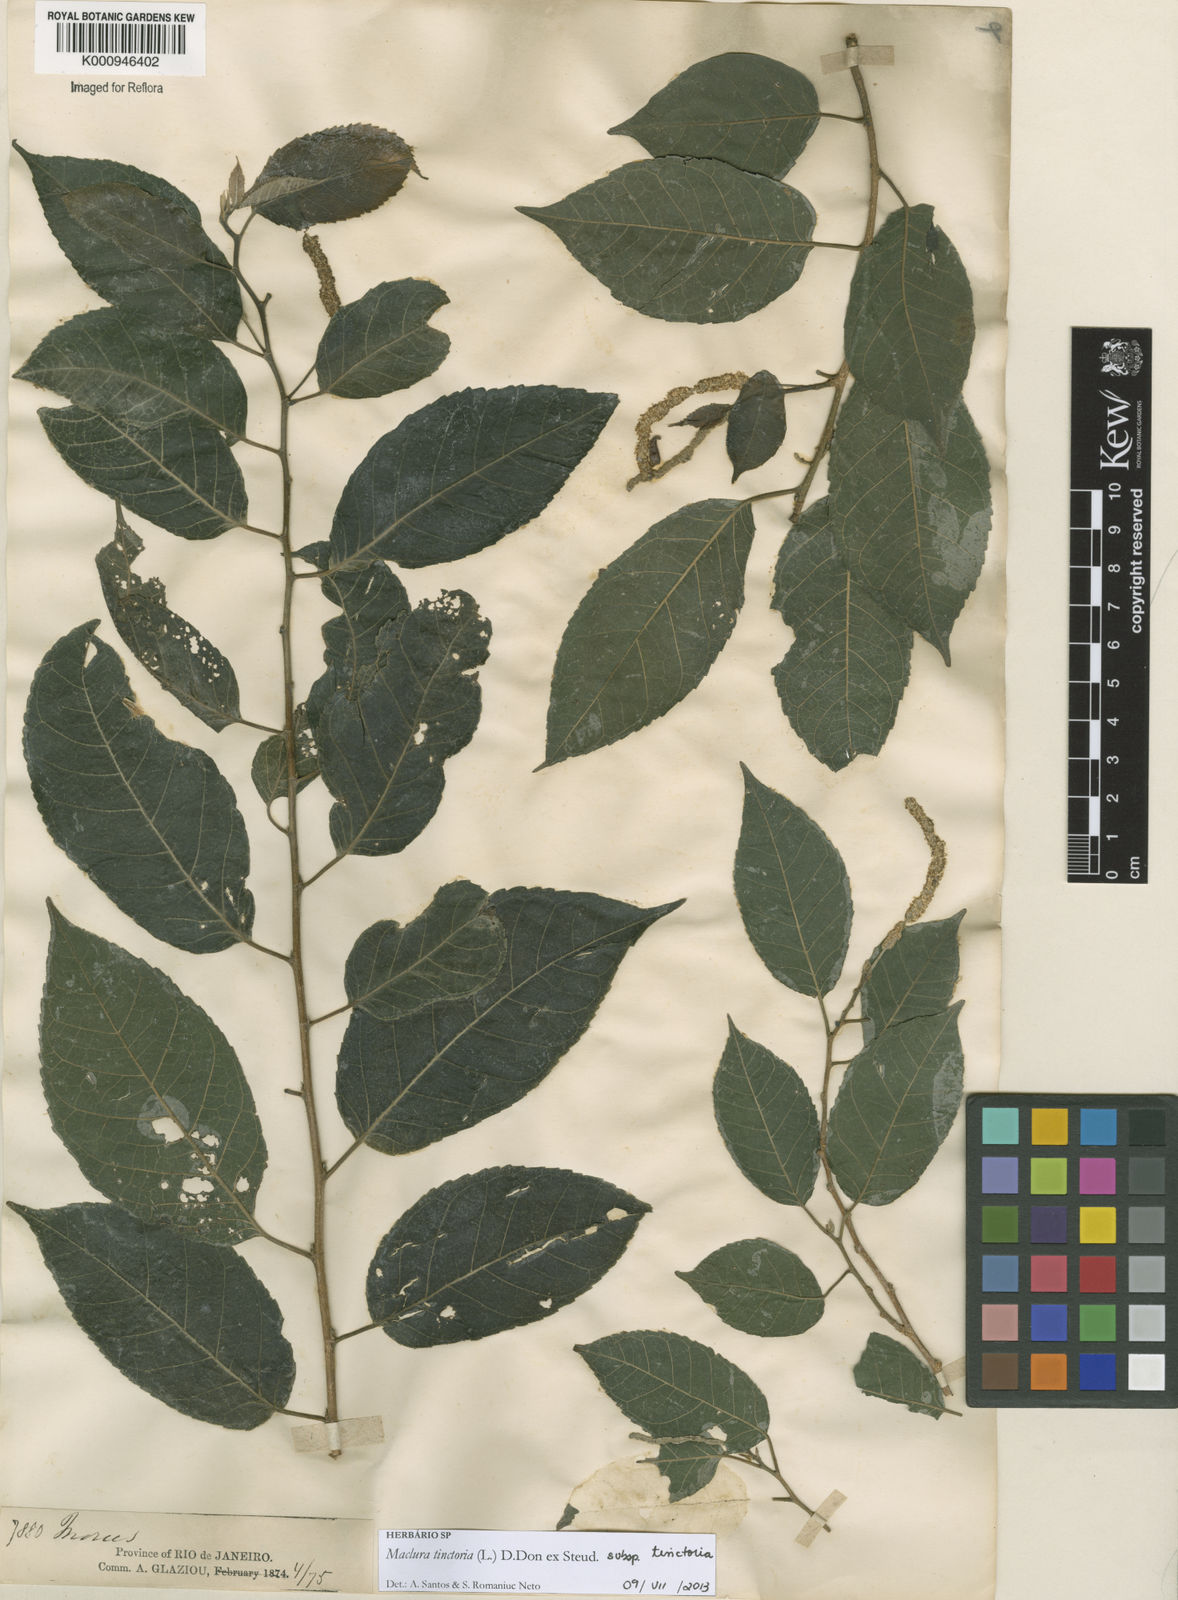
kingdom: Plantae
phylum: Tracheophyta
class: Magnoliopsida
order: Rosales
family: Moraceae
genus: Maclura
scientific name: Maclura
